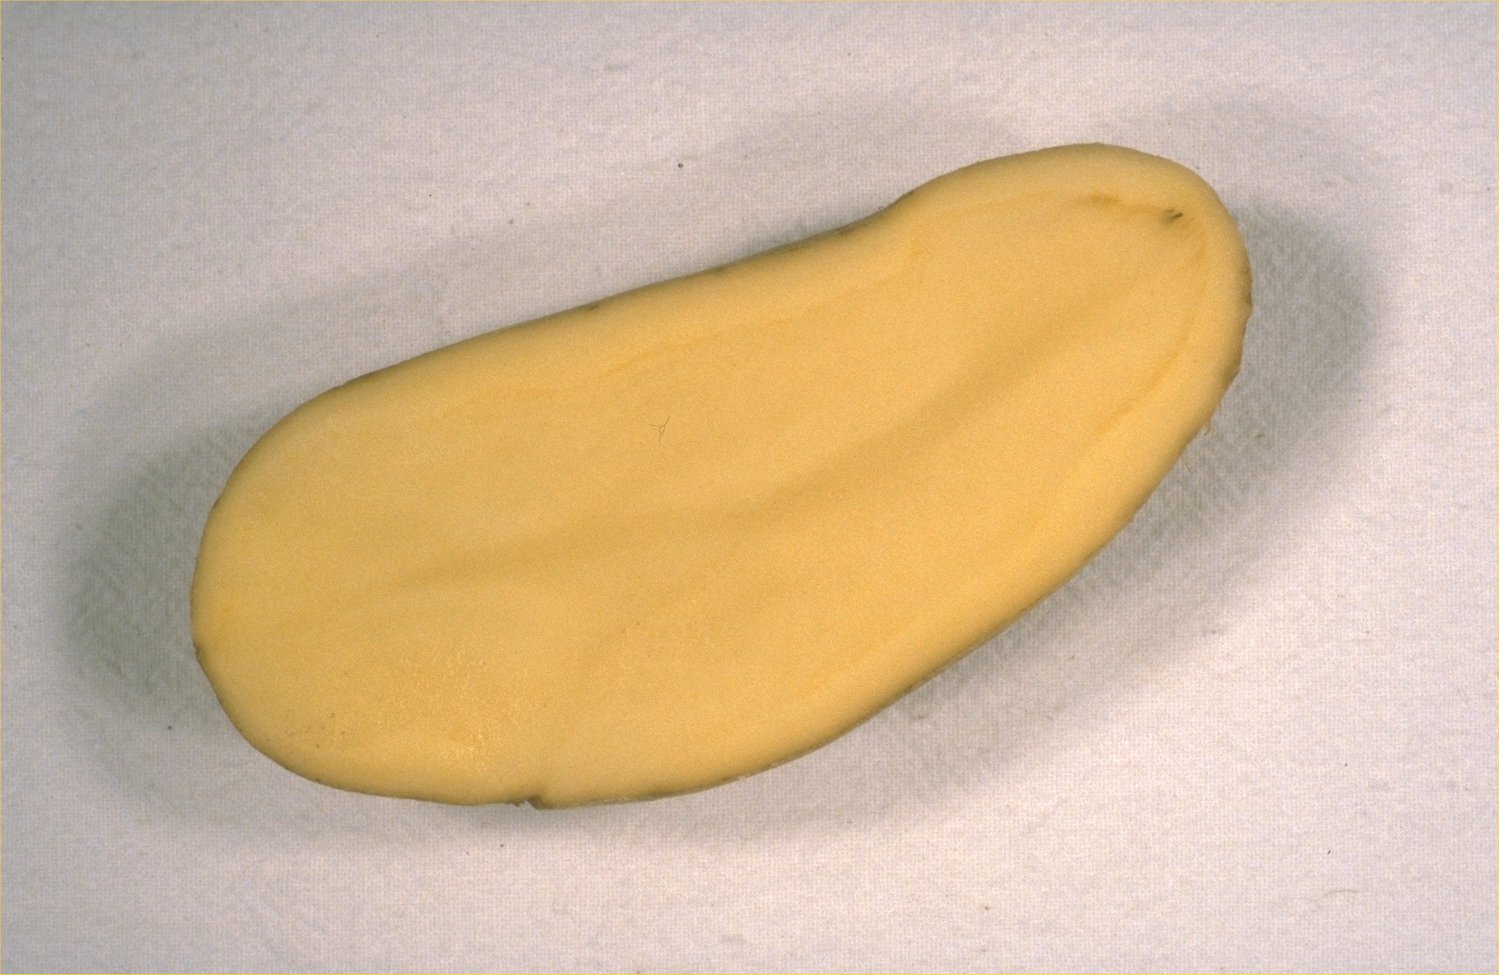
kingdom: Plantae
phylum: Tracheophyta
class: Magnoliopsida
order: Solanales
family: Solanaceae
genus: Solanum
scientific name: Solanum tuberosum
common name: Potato
